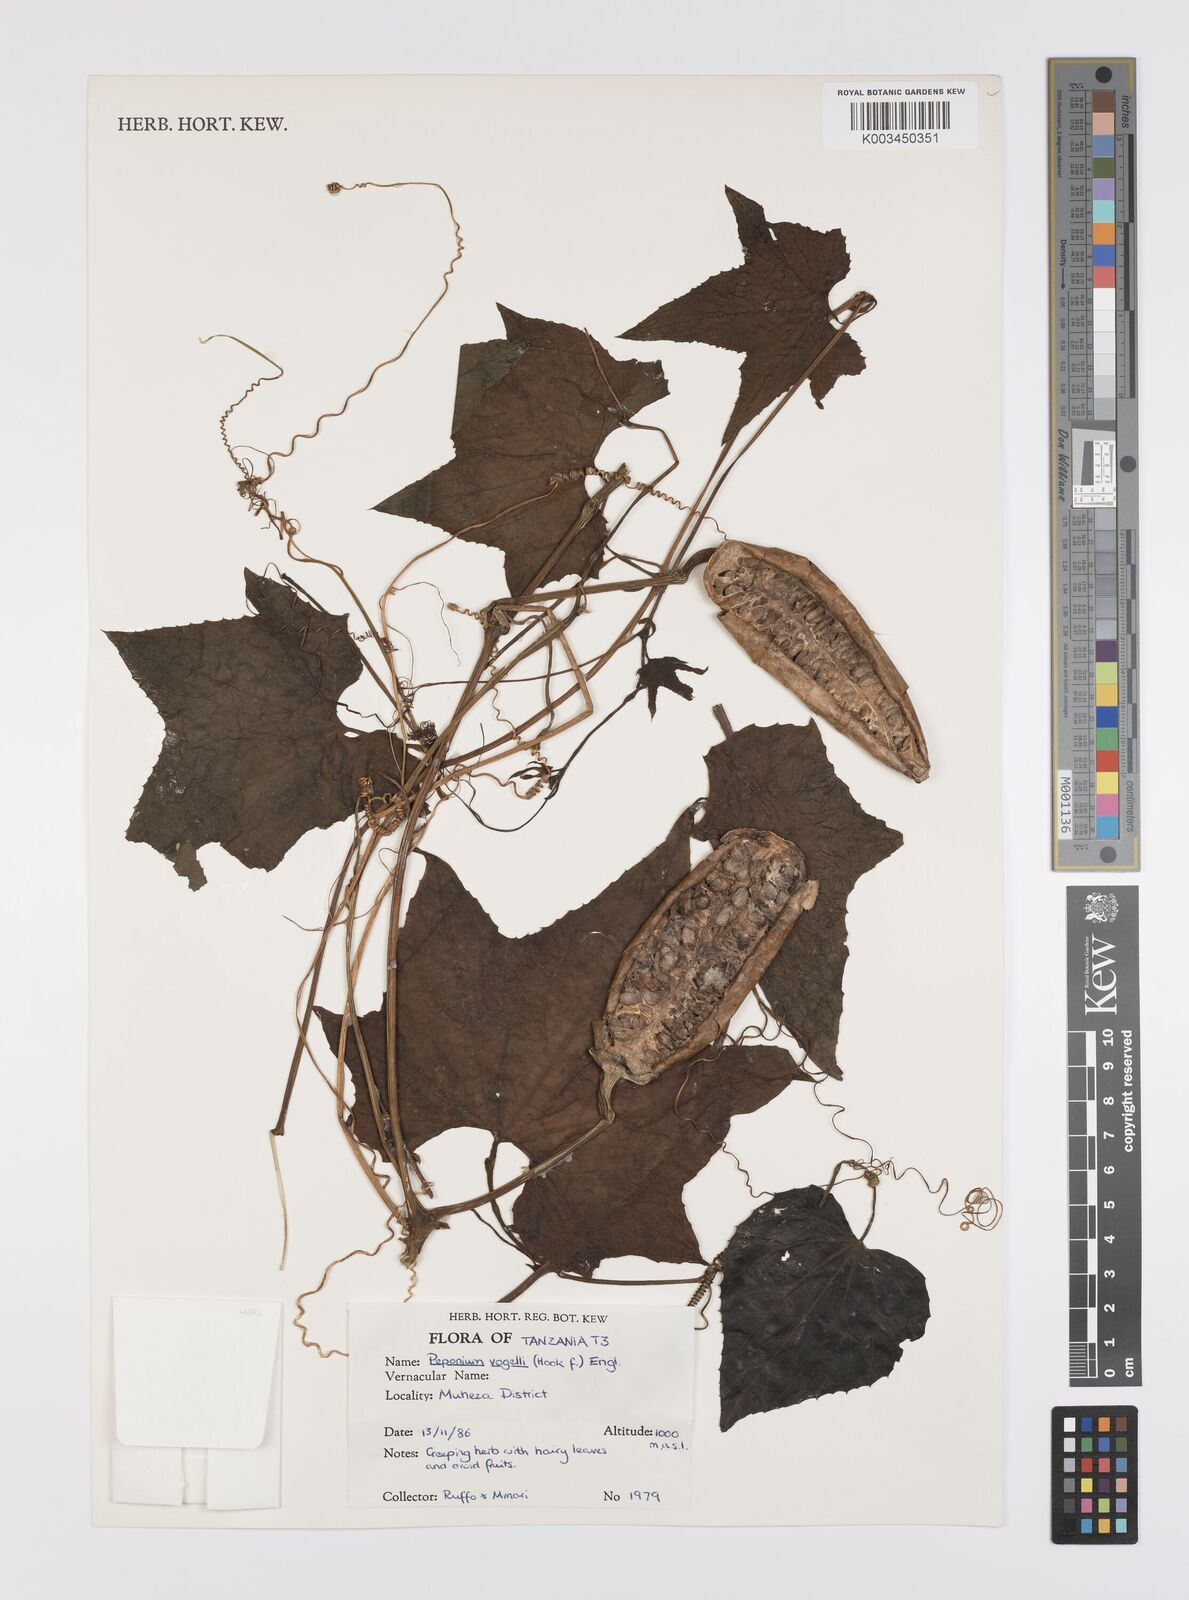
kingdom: Plantae
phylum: Tracheophyta
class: Magnoliopsida
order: Cucurbitales
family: Cucurbitaceae
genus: Peponium
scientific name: Peponium vogelii
